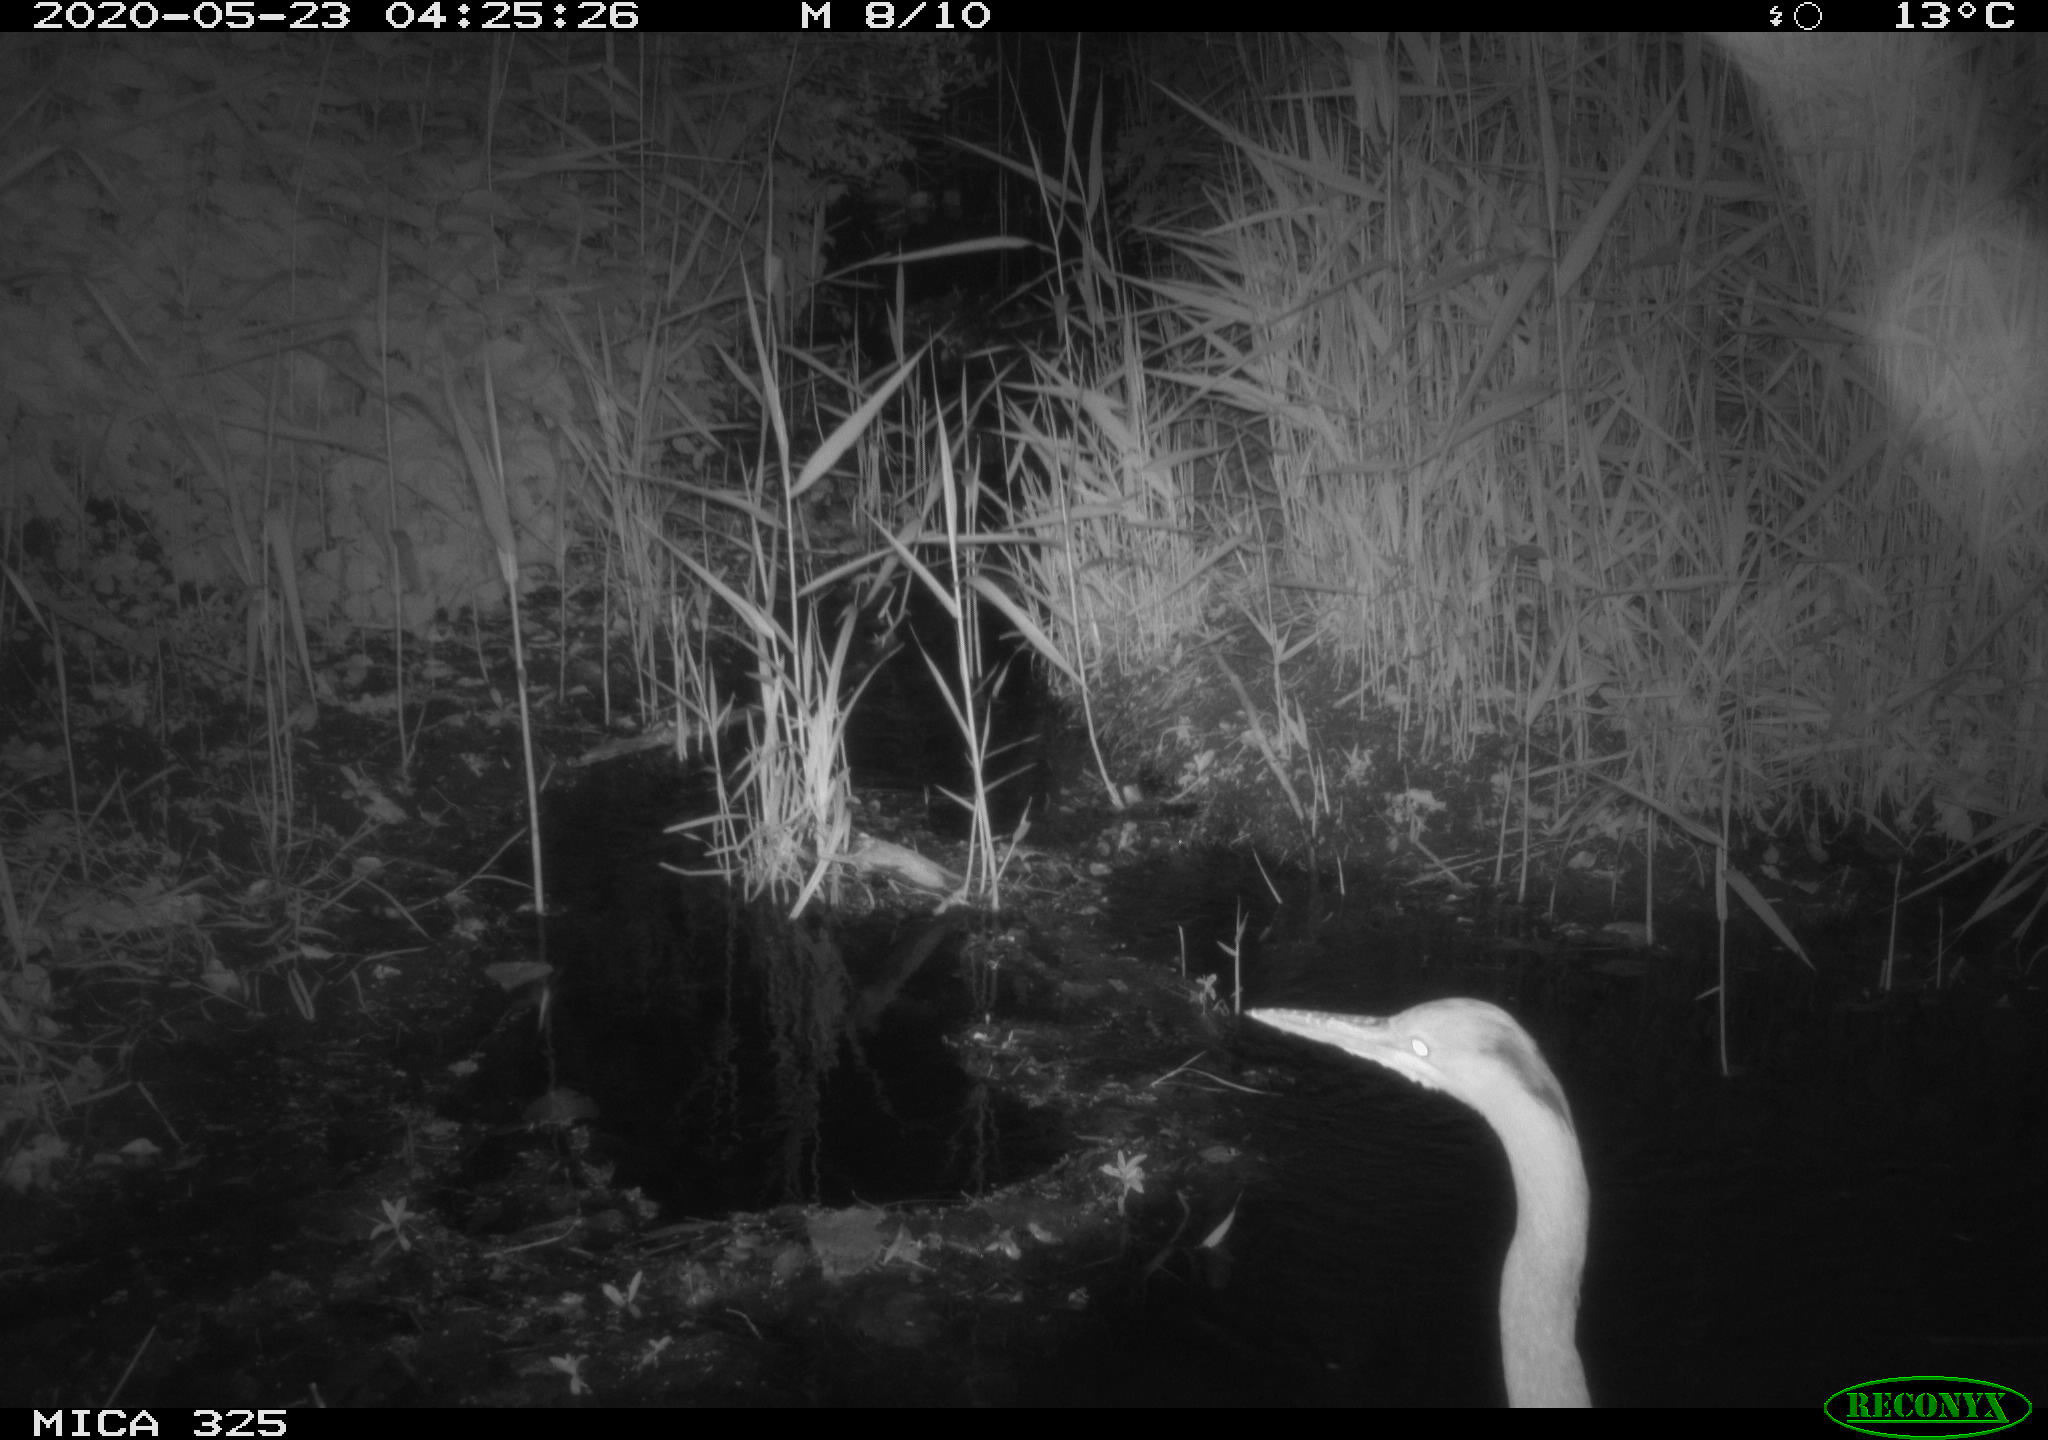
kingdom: Animalia
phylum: Chordata
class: Aves
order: Pelecaniformes
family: Ardeidae
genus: Ardea
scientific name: Ardea cinerea
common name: Grey heron
